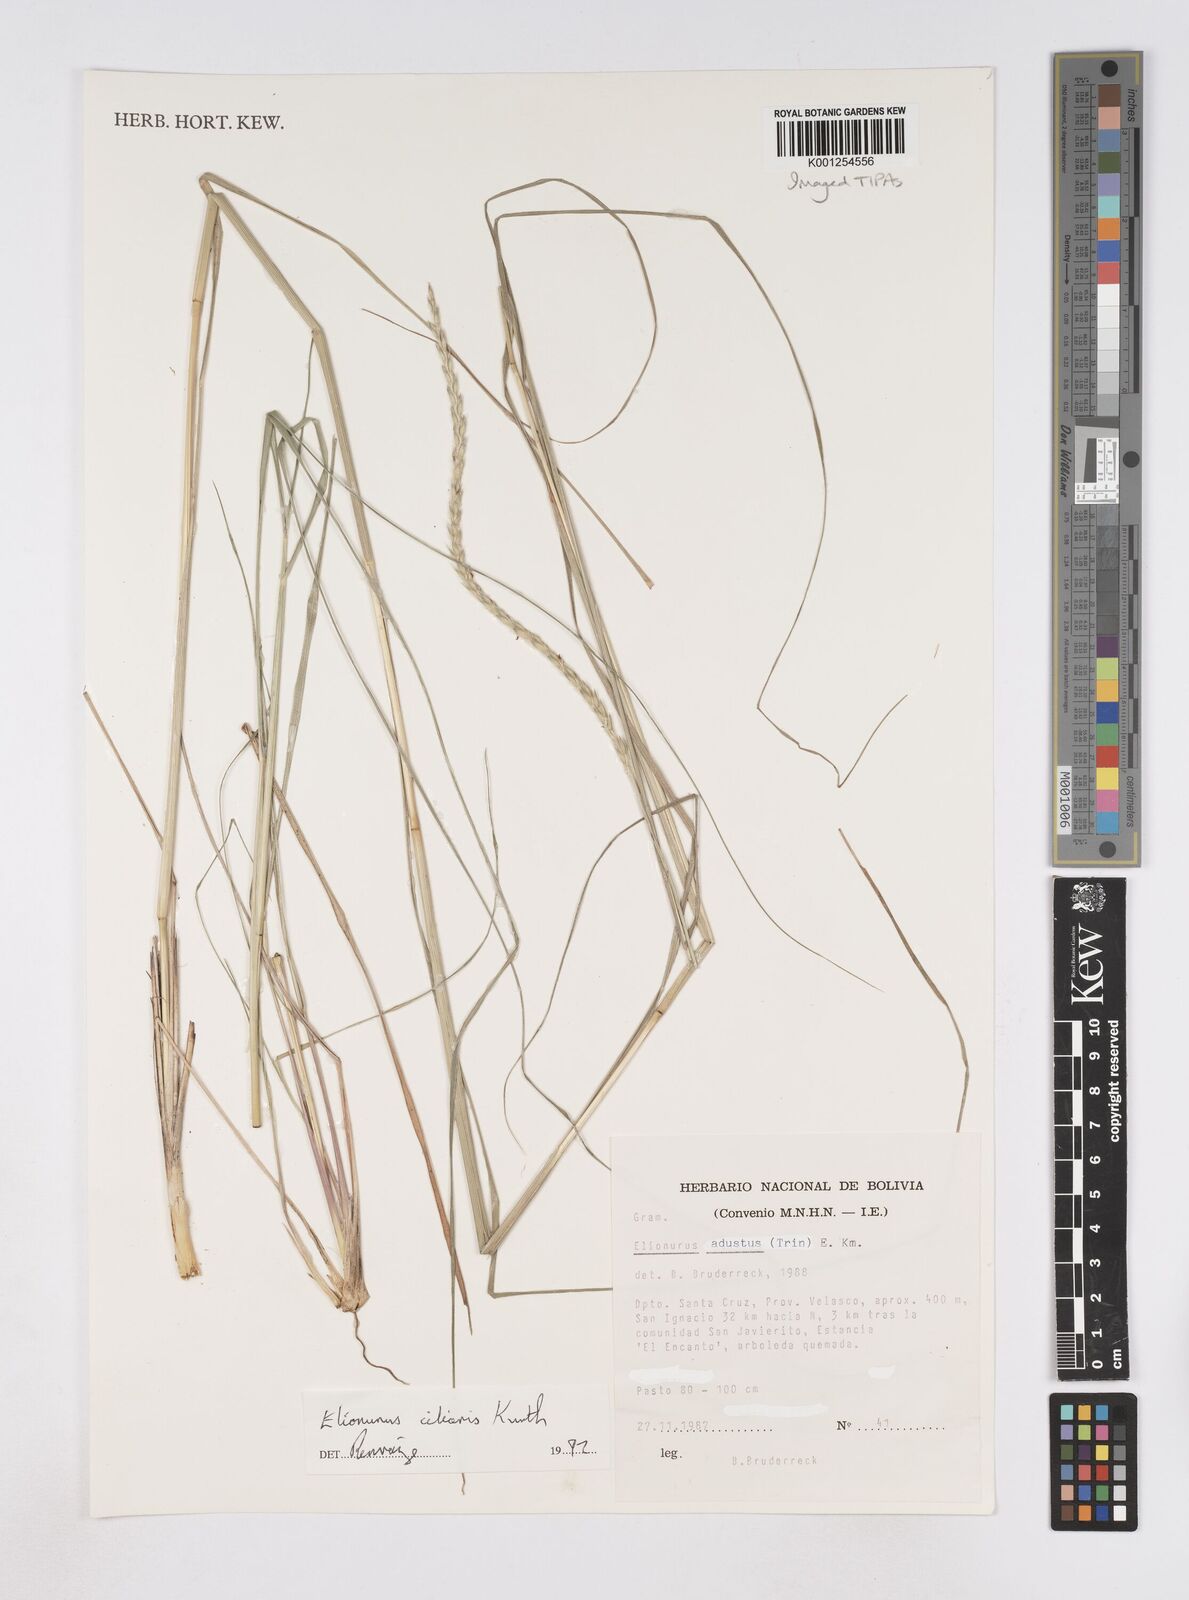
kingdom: Plantae
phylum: Tracheophyta
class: Liliopsida
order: Poales
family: Poaceae
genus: Elionurus
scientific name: Elionurus ciliaris
